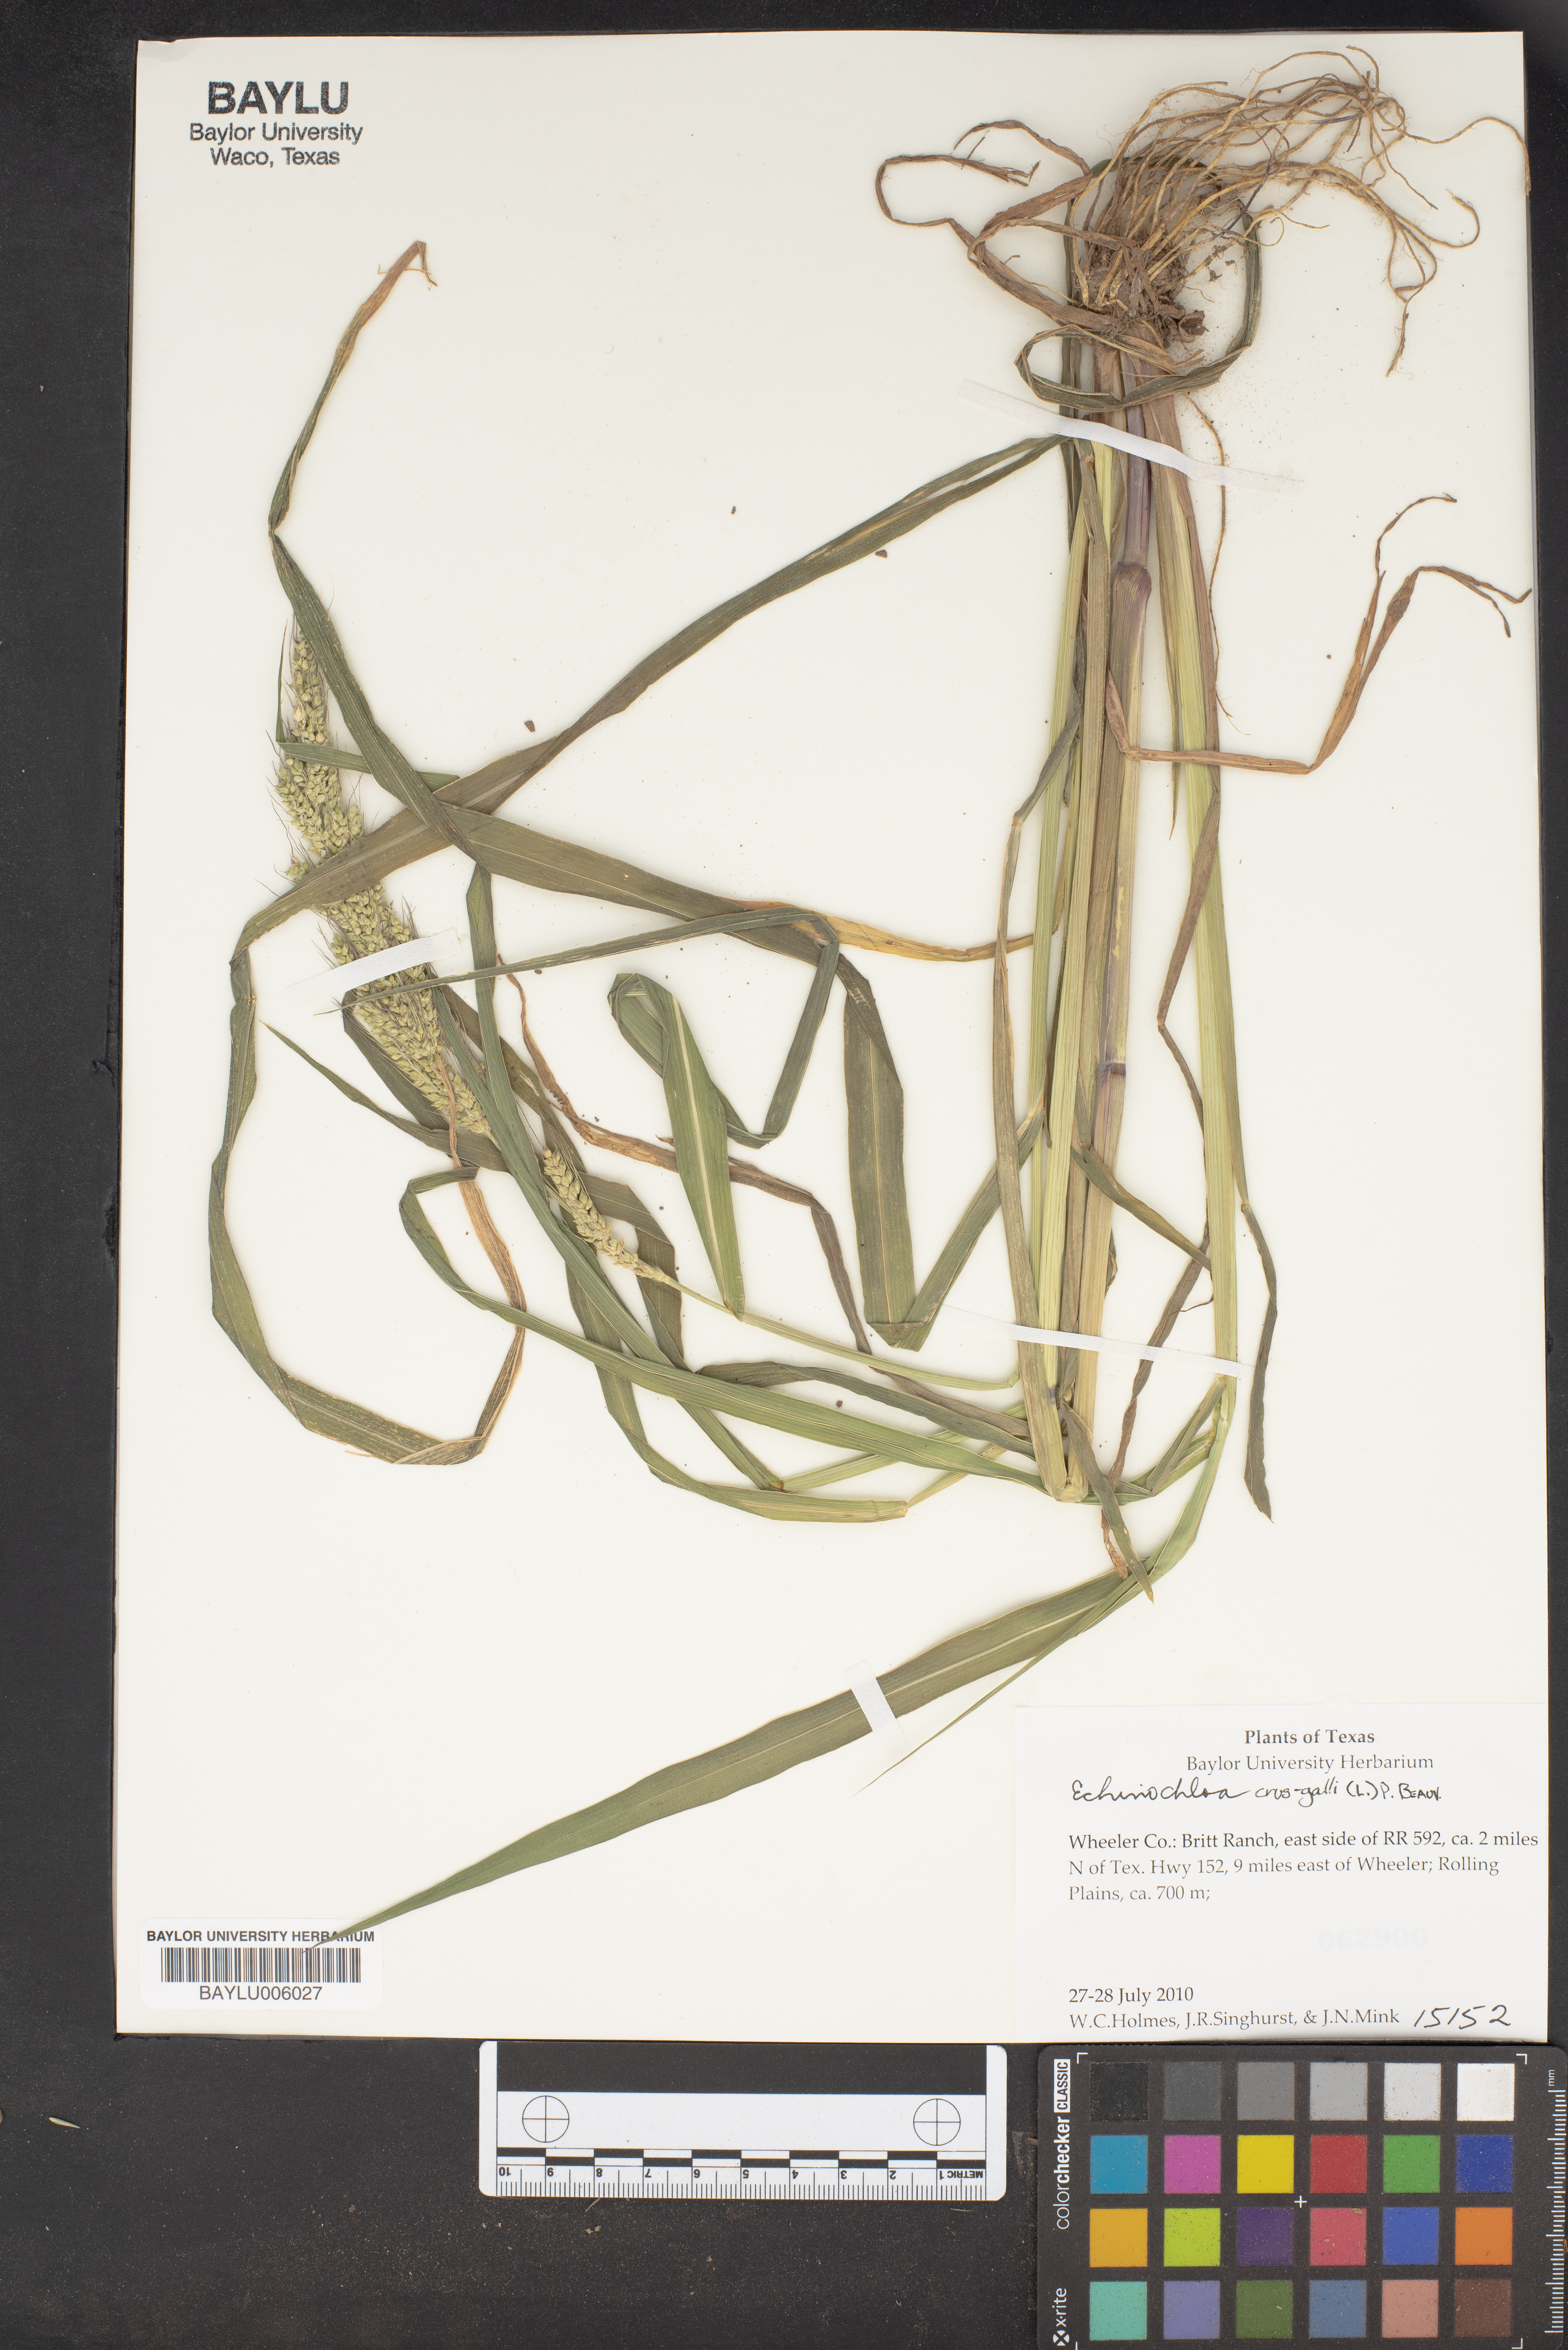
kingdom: Plantae
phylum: Tracheophyta
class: Liliopsida
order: Poales
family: Poaceae
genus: Echinochloa
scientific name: Echinochloa crus-galli
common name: Cockspur
